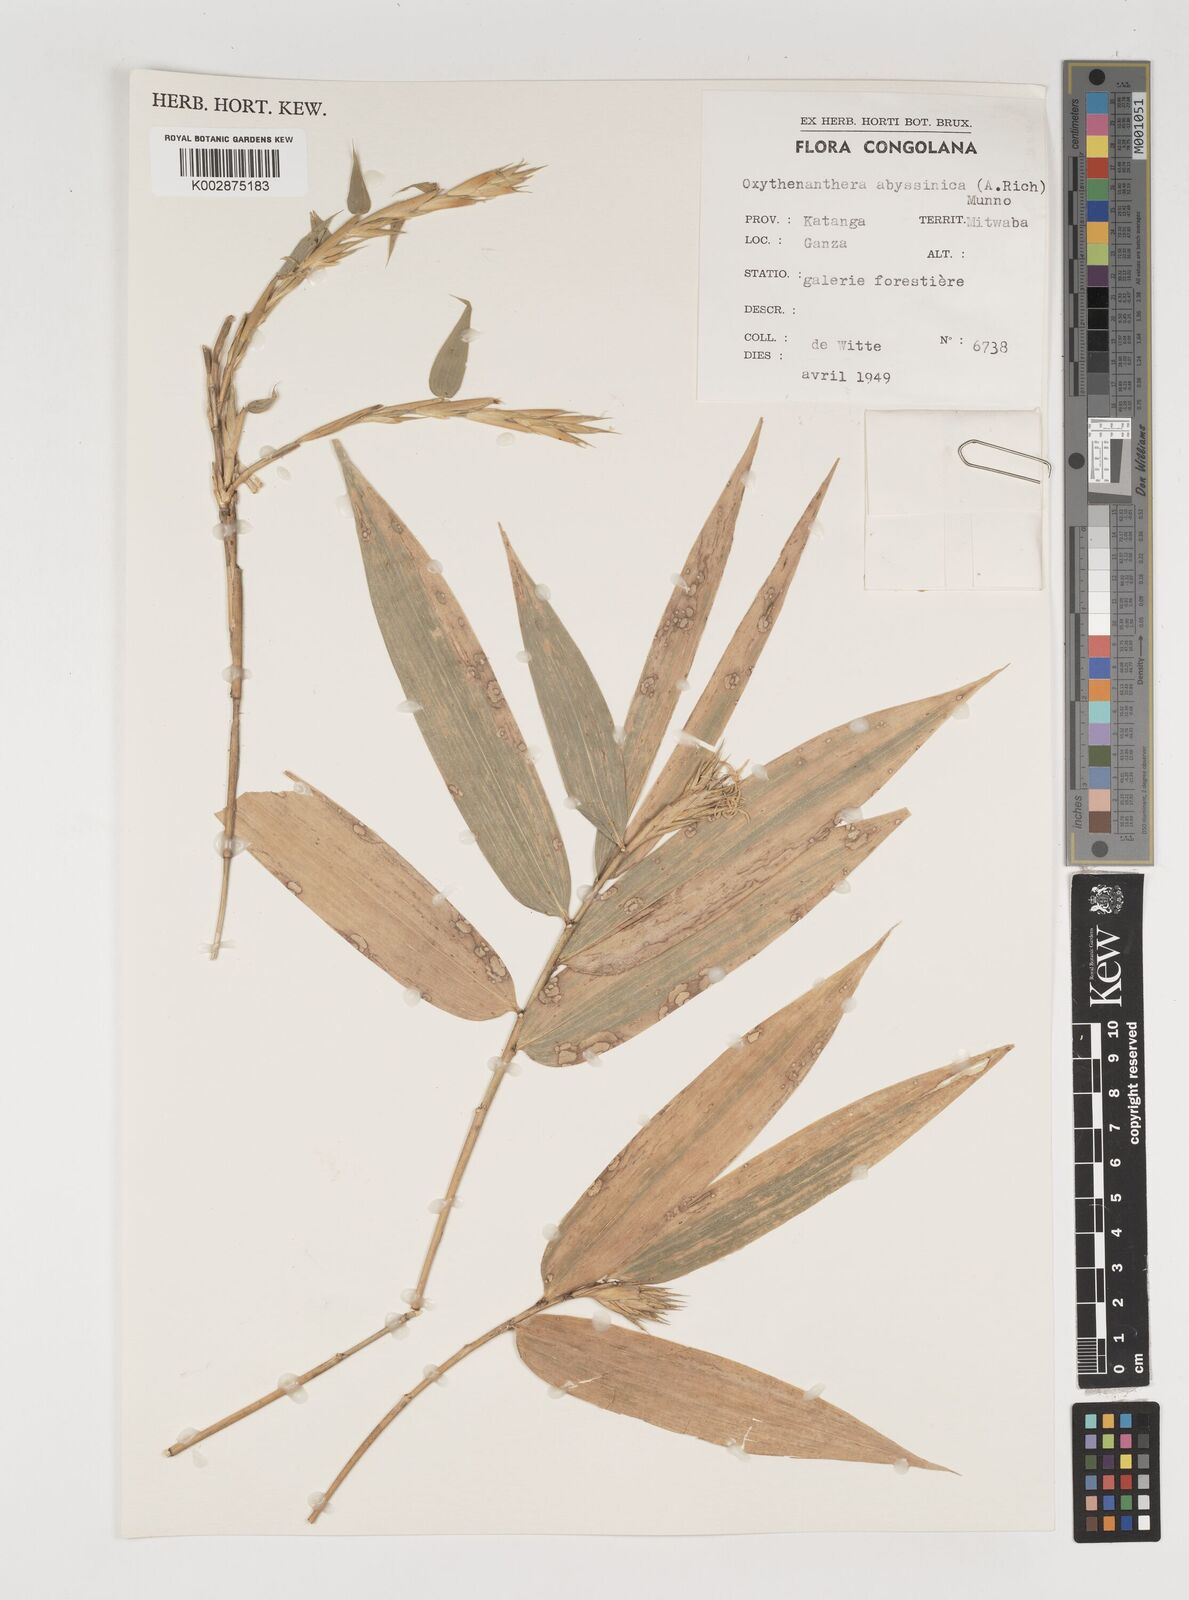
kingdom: Plantae
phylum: Tracheophyta
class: Liliopsida
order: Poales
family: Poaceae
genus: Oxytenanthera
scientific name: Oxytenanthera abyssinica
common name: Wine bamboo
